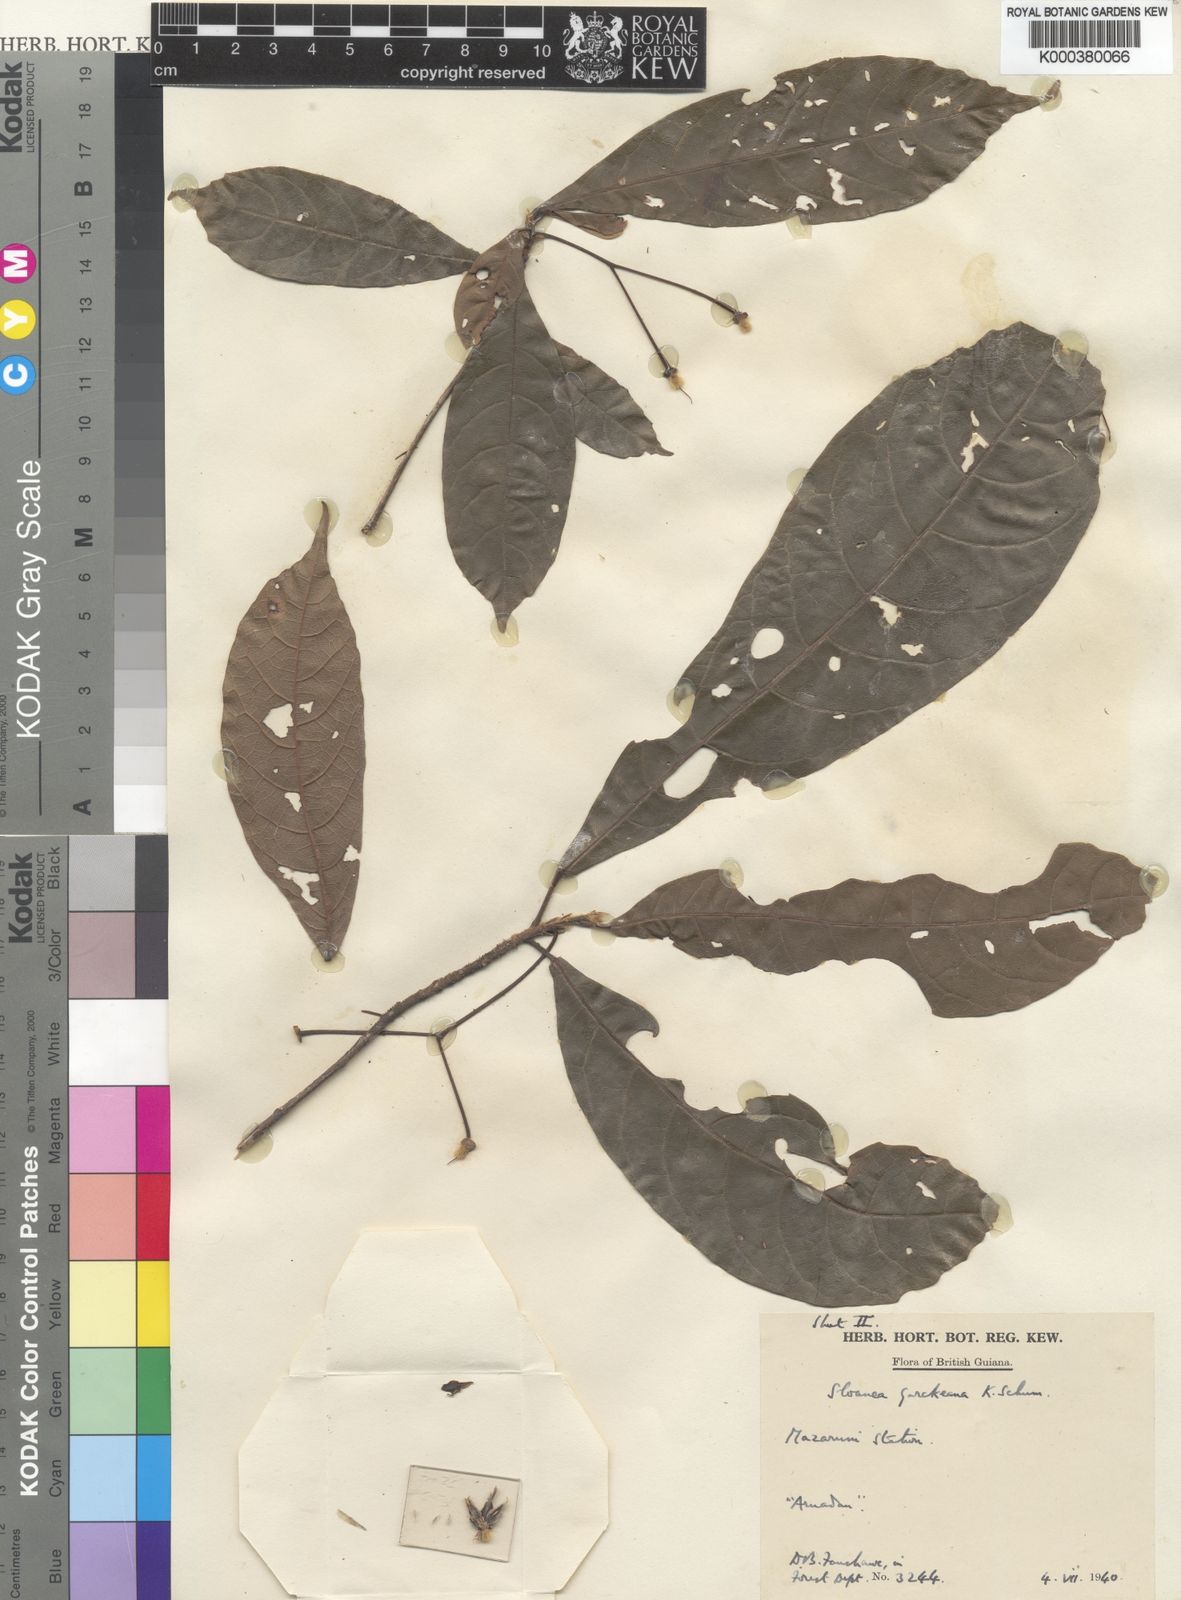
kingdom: Plantae
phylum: Tracheophyta
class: Magnoliopsida
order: Oxalidales
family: Elaeocarpaceae
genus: Sloanea
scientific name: Sloanea garckeana
